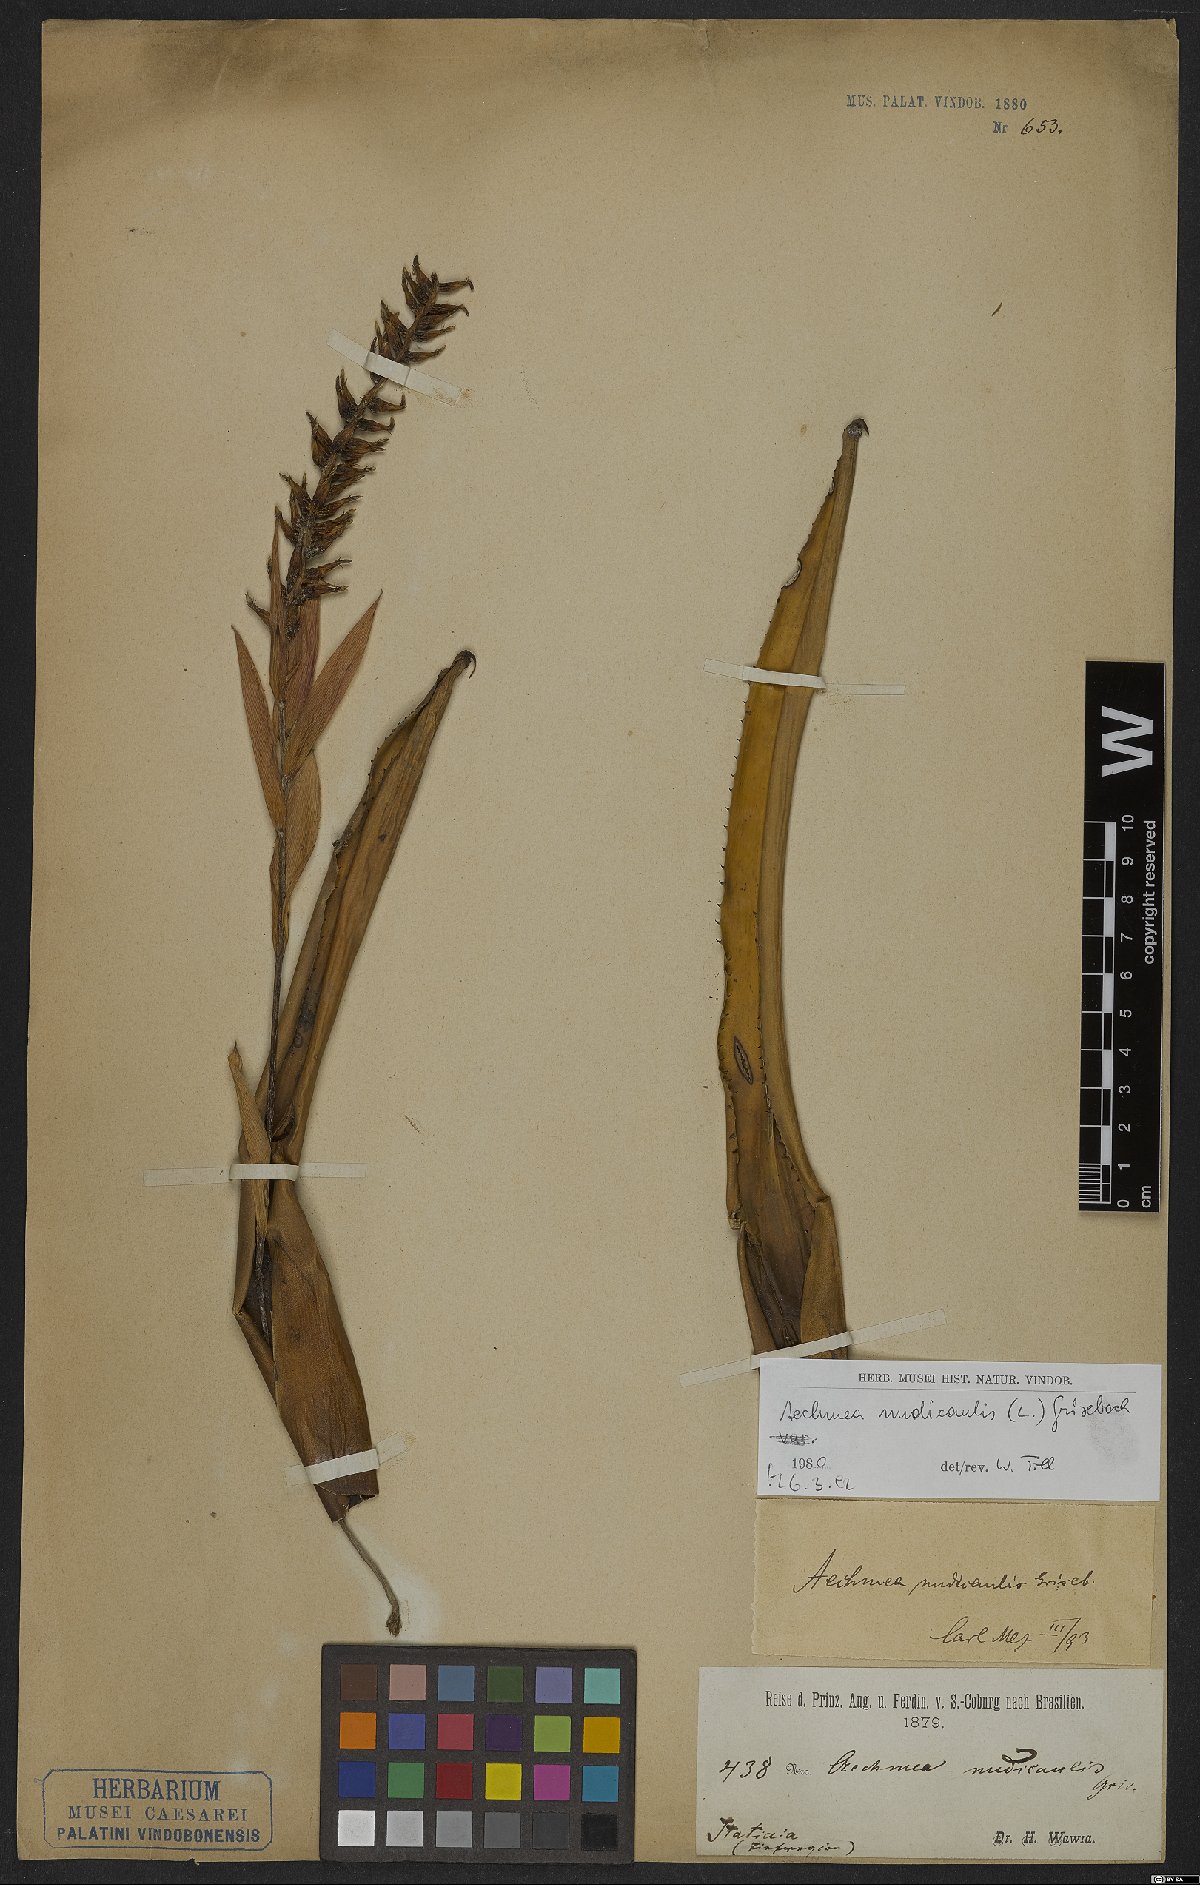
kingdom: Plantae
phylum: Tracheophyta
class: Liliopsida
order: Poales
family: Bromeliaceae
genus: Aechmea
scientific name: Aechmea nudicaulis
